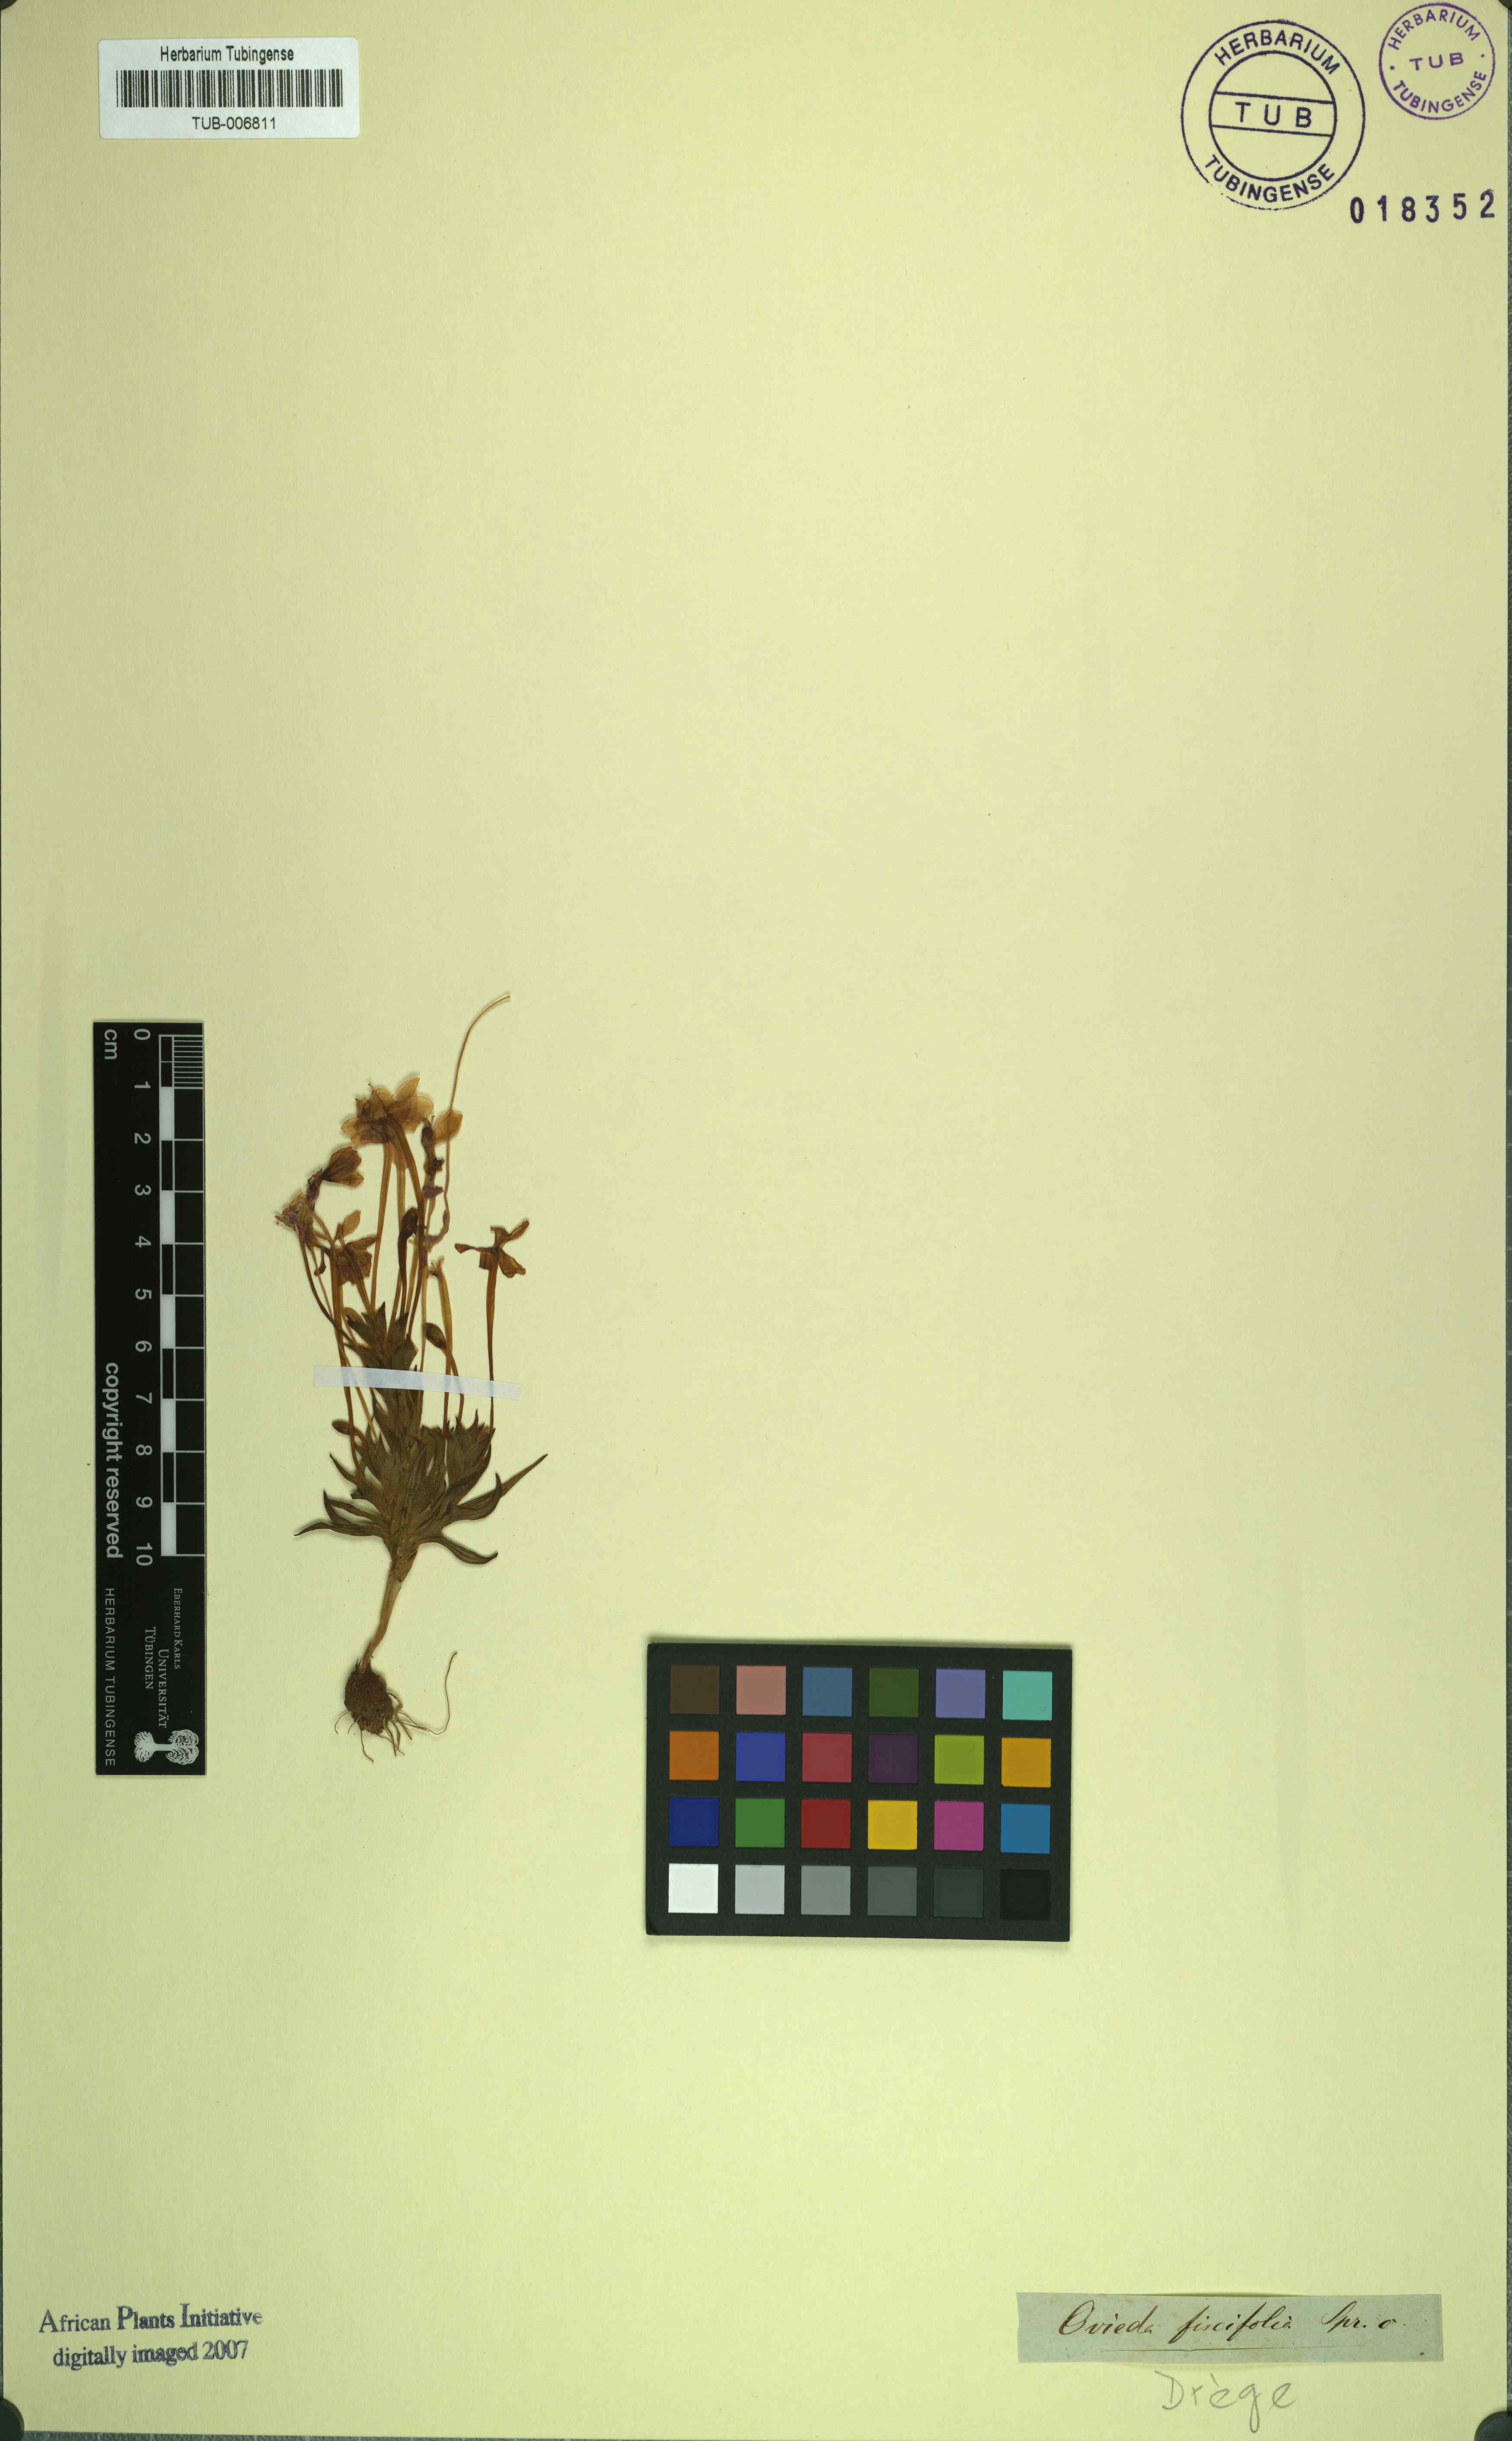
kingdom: Plantae
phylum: Tracheophyta
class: Liliopsida
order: Asparagales
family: Iridaceae
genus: Lapeirousia
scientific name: Lapeirousia pyramidalis
